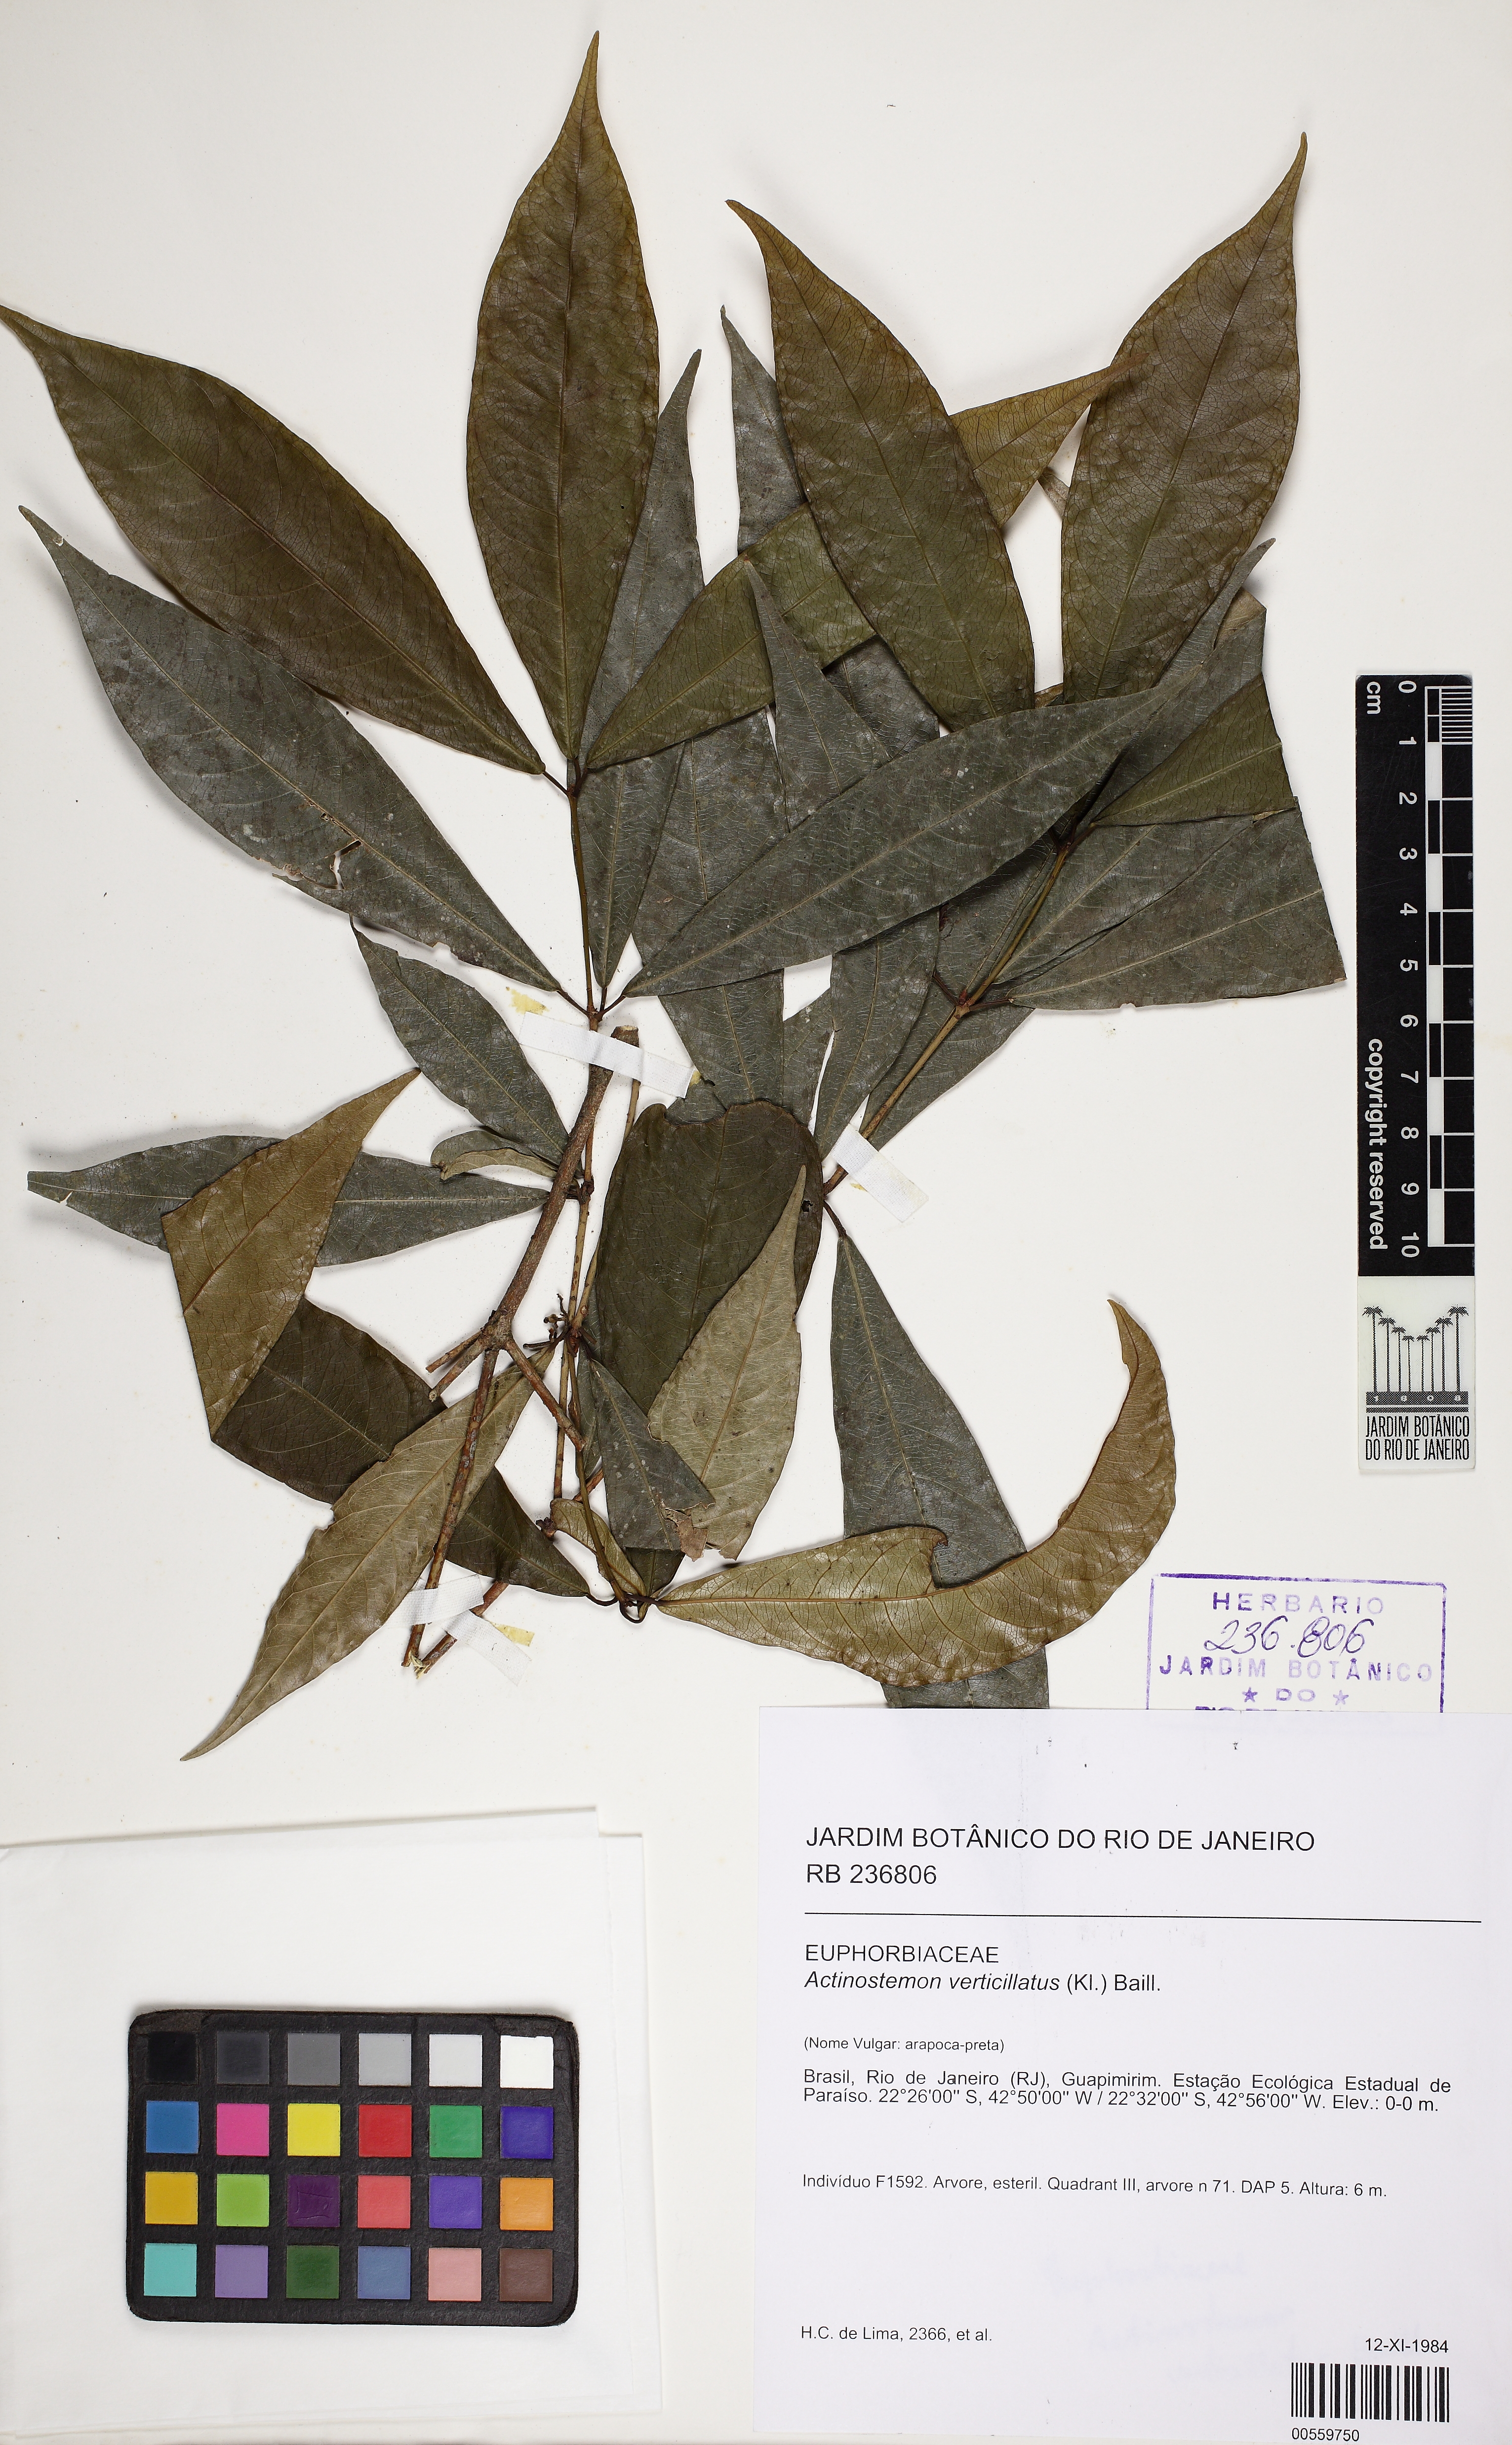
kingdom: Plantae
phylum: Tracheophyta
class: Magnoliopsida
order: Malpighiales
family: Euphorbiaceae
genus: Actinostemon
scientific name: Actinostemon verticillatus
